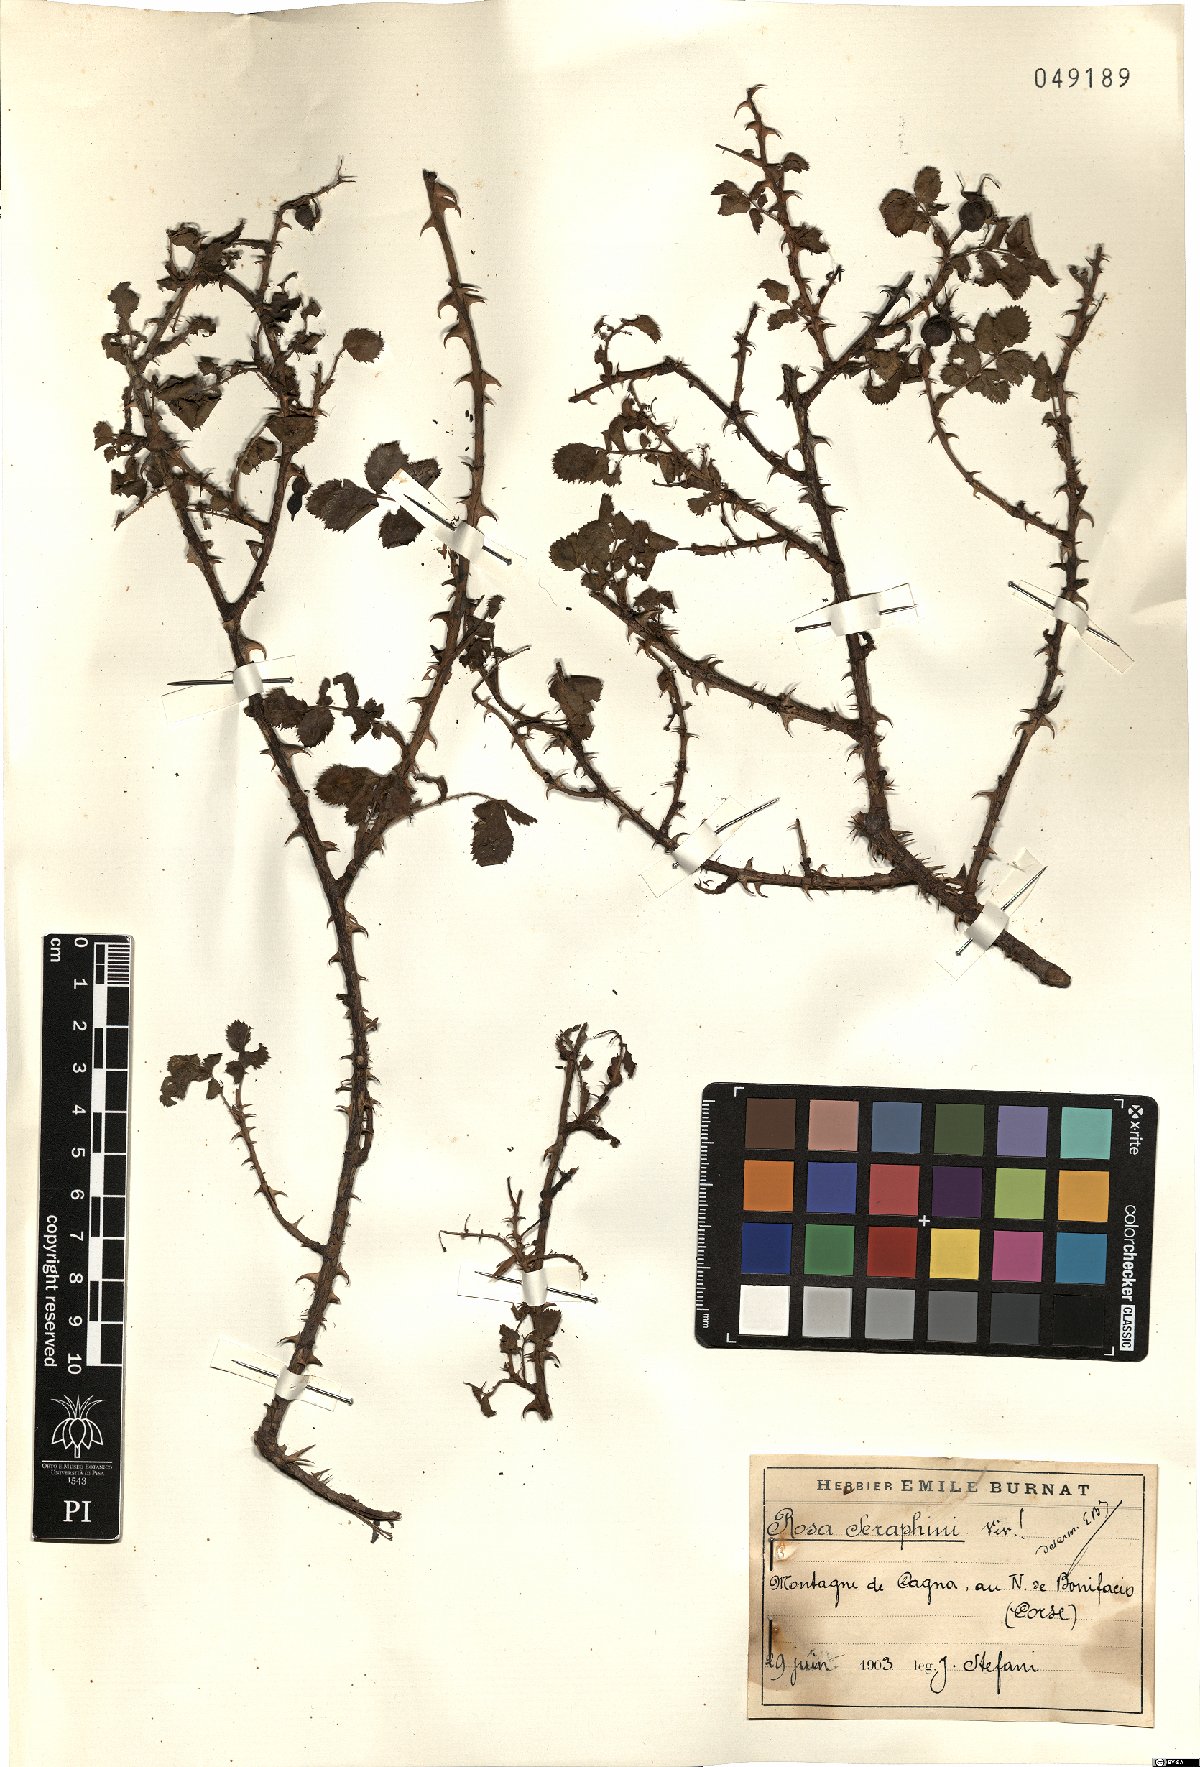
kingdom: Plantae
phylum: Tracheophyta
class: Magnoliopsida
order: Rosales
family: Rosaceae
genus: Rosa
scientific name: Rosa serafinii
